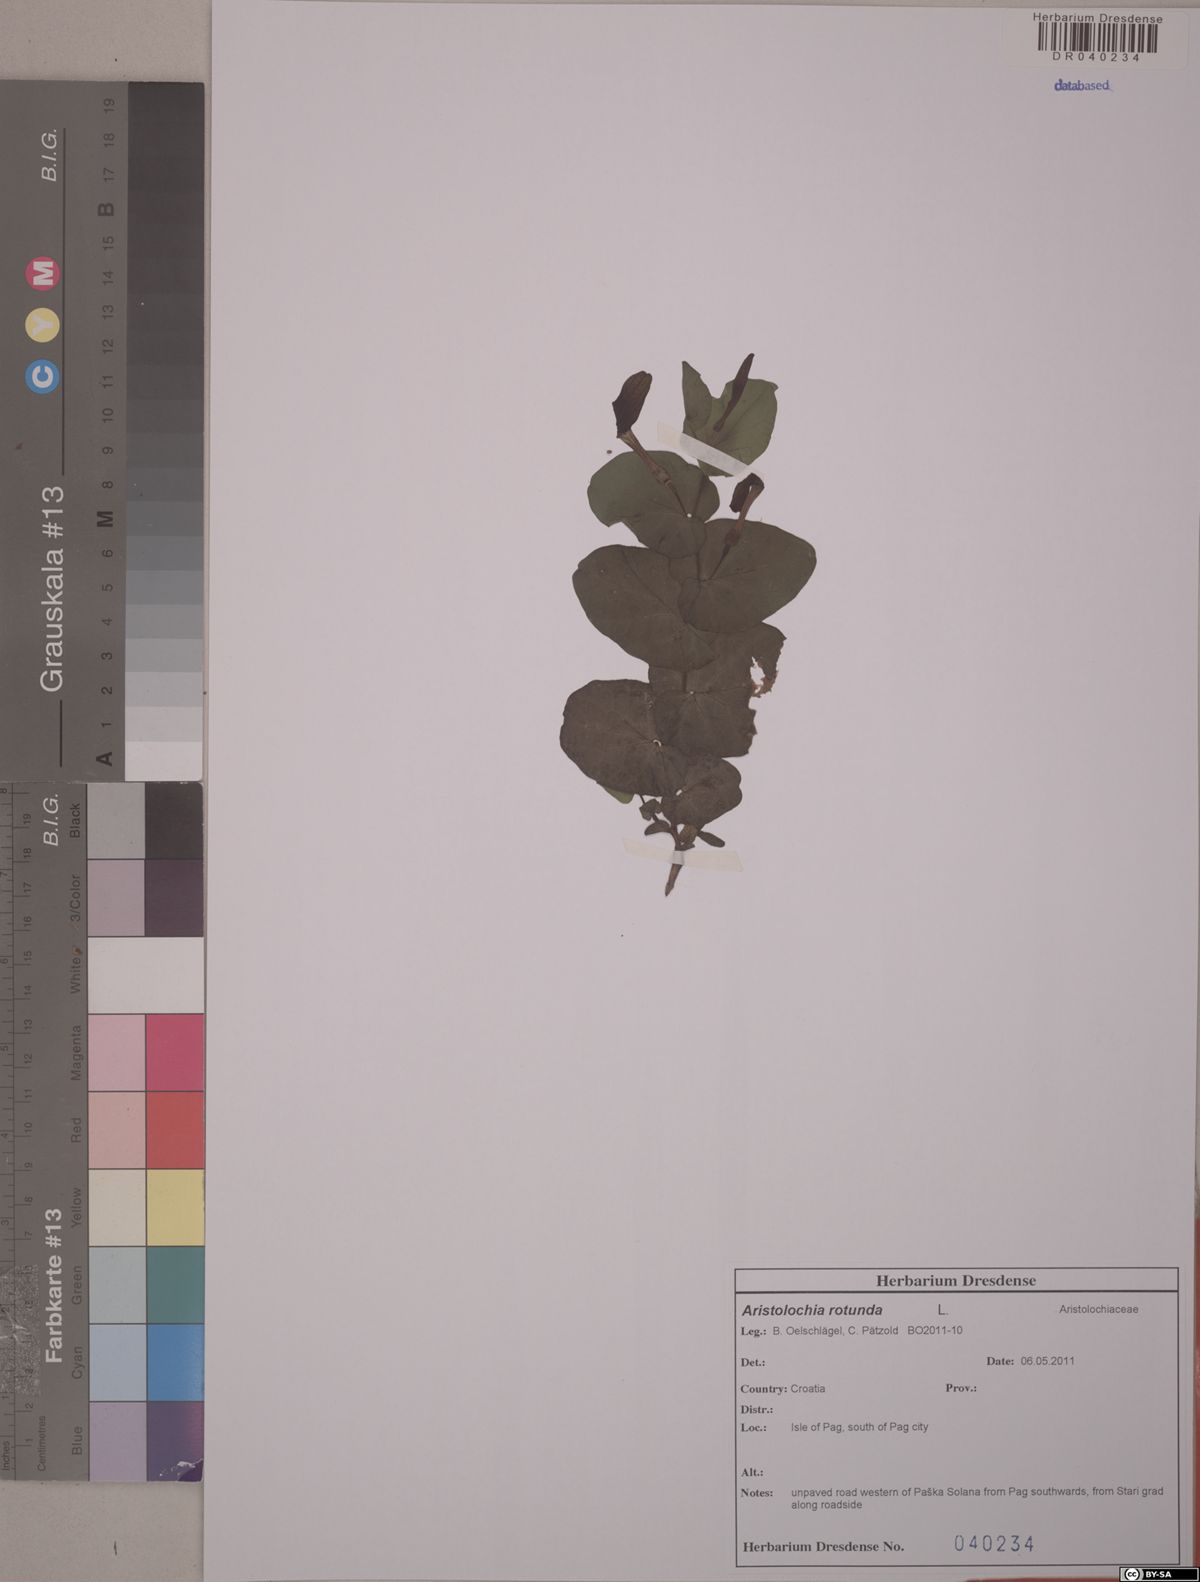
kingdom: Plantae
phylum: Tracheophyta
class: Magnoliopsida
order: Piperales
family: Aristolochiaceae
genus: Aristolochia
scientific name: Aristolochia rotunda
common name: Smearwort
